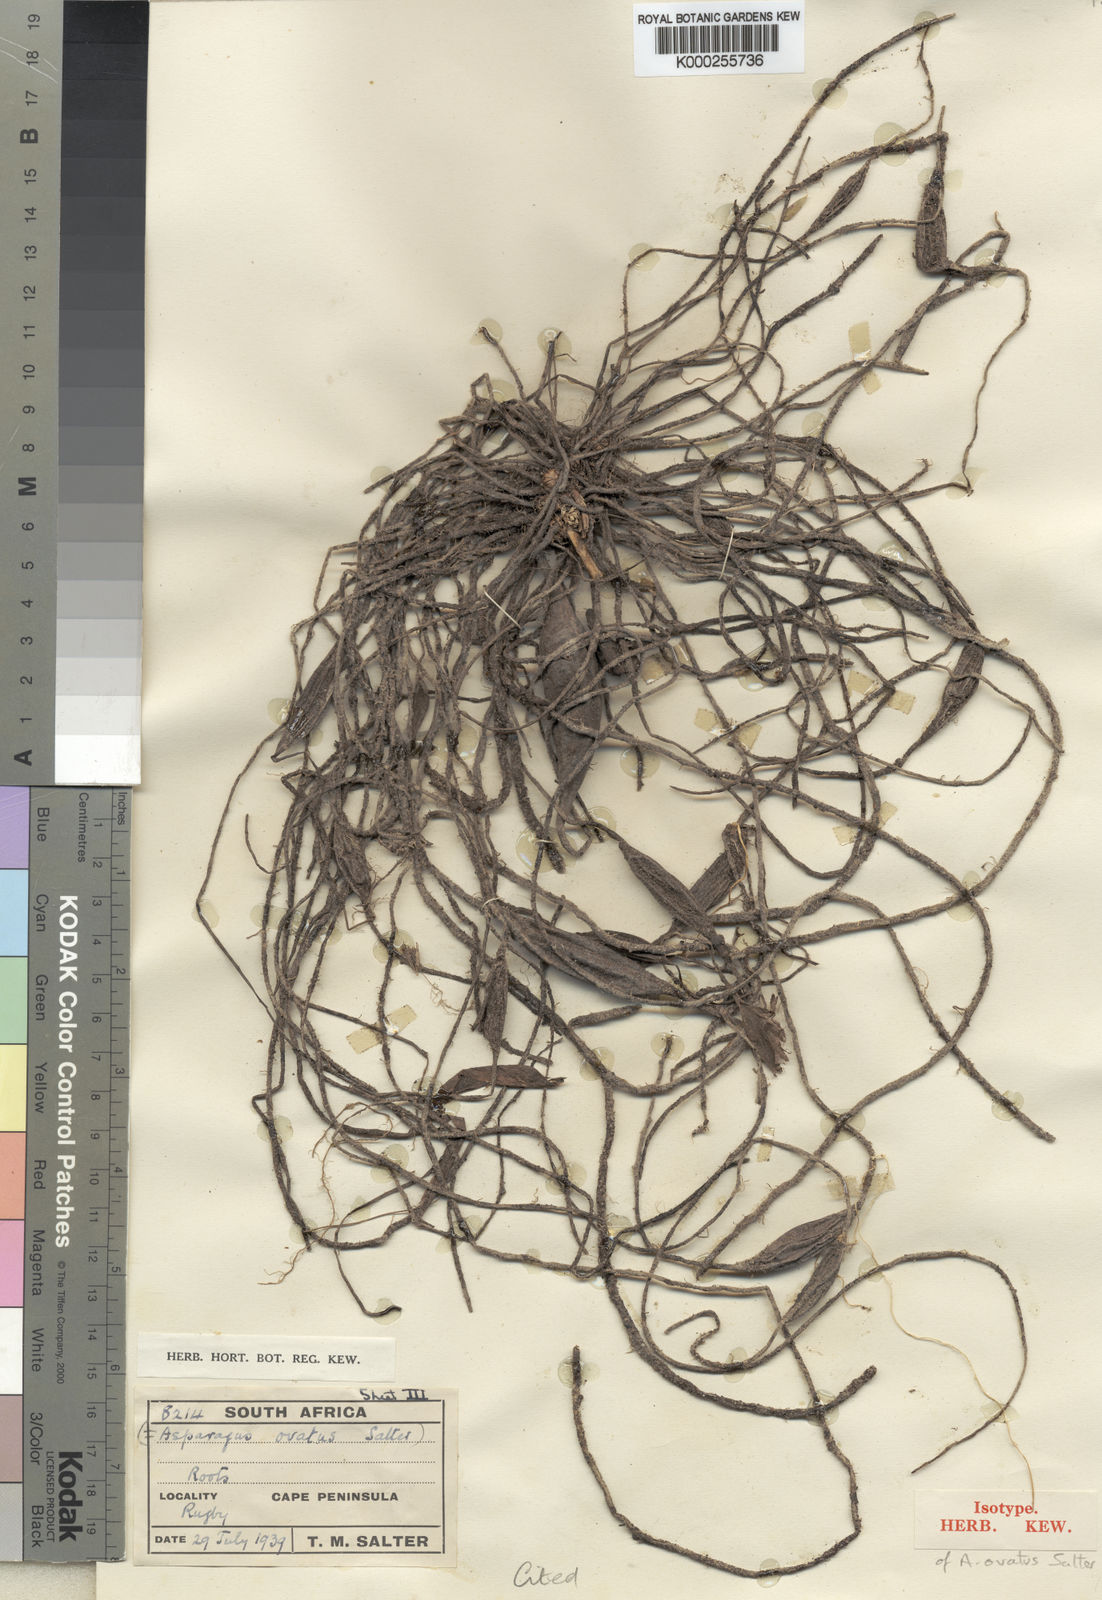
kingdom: Plantae
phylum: Tracheophyta
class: Liliopsida
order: Asparagales
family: Asparagaceae
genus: Asparagus
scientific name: Asparagus
